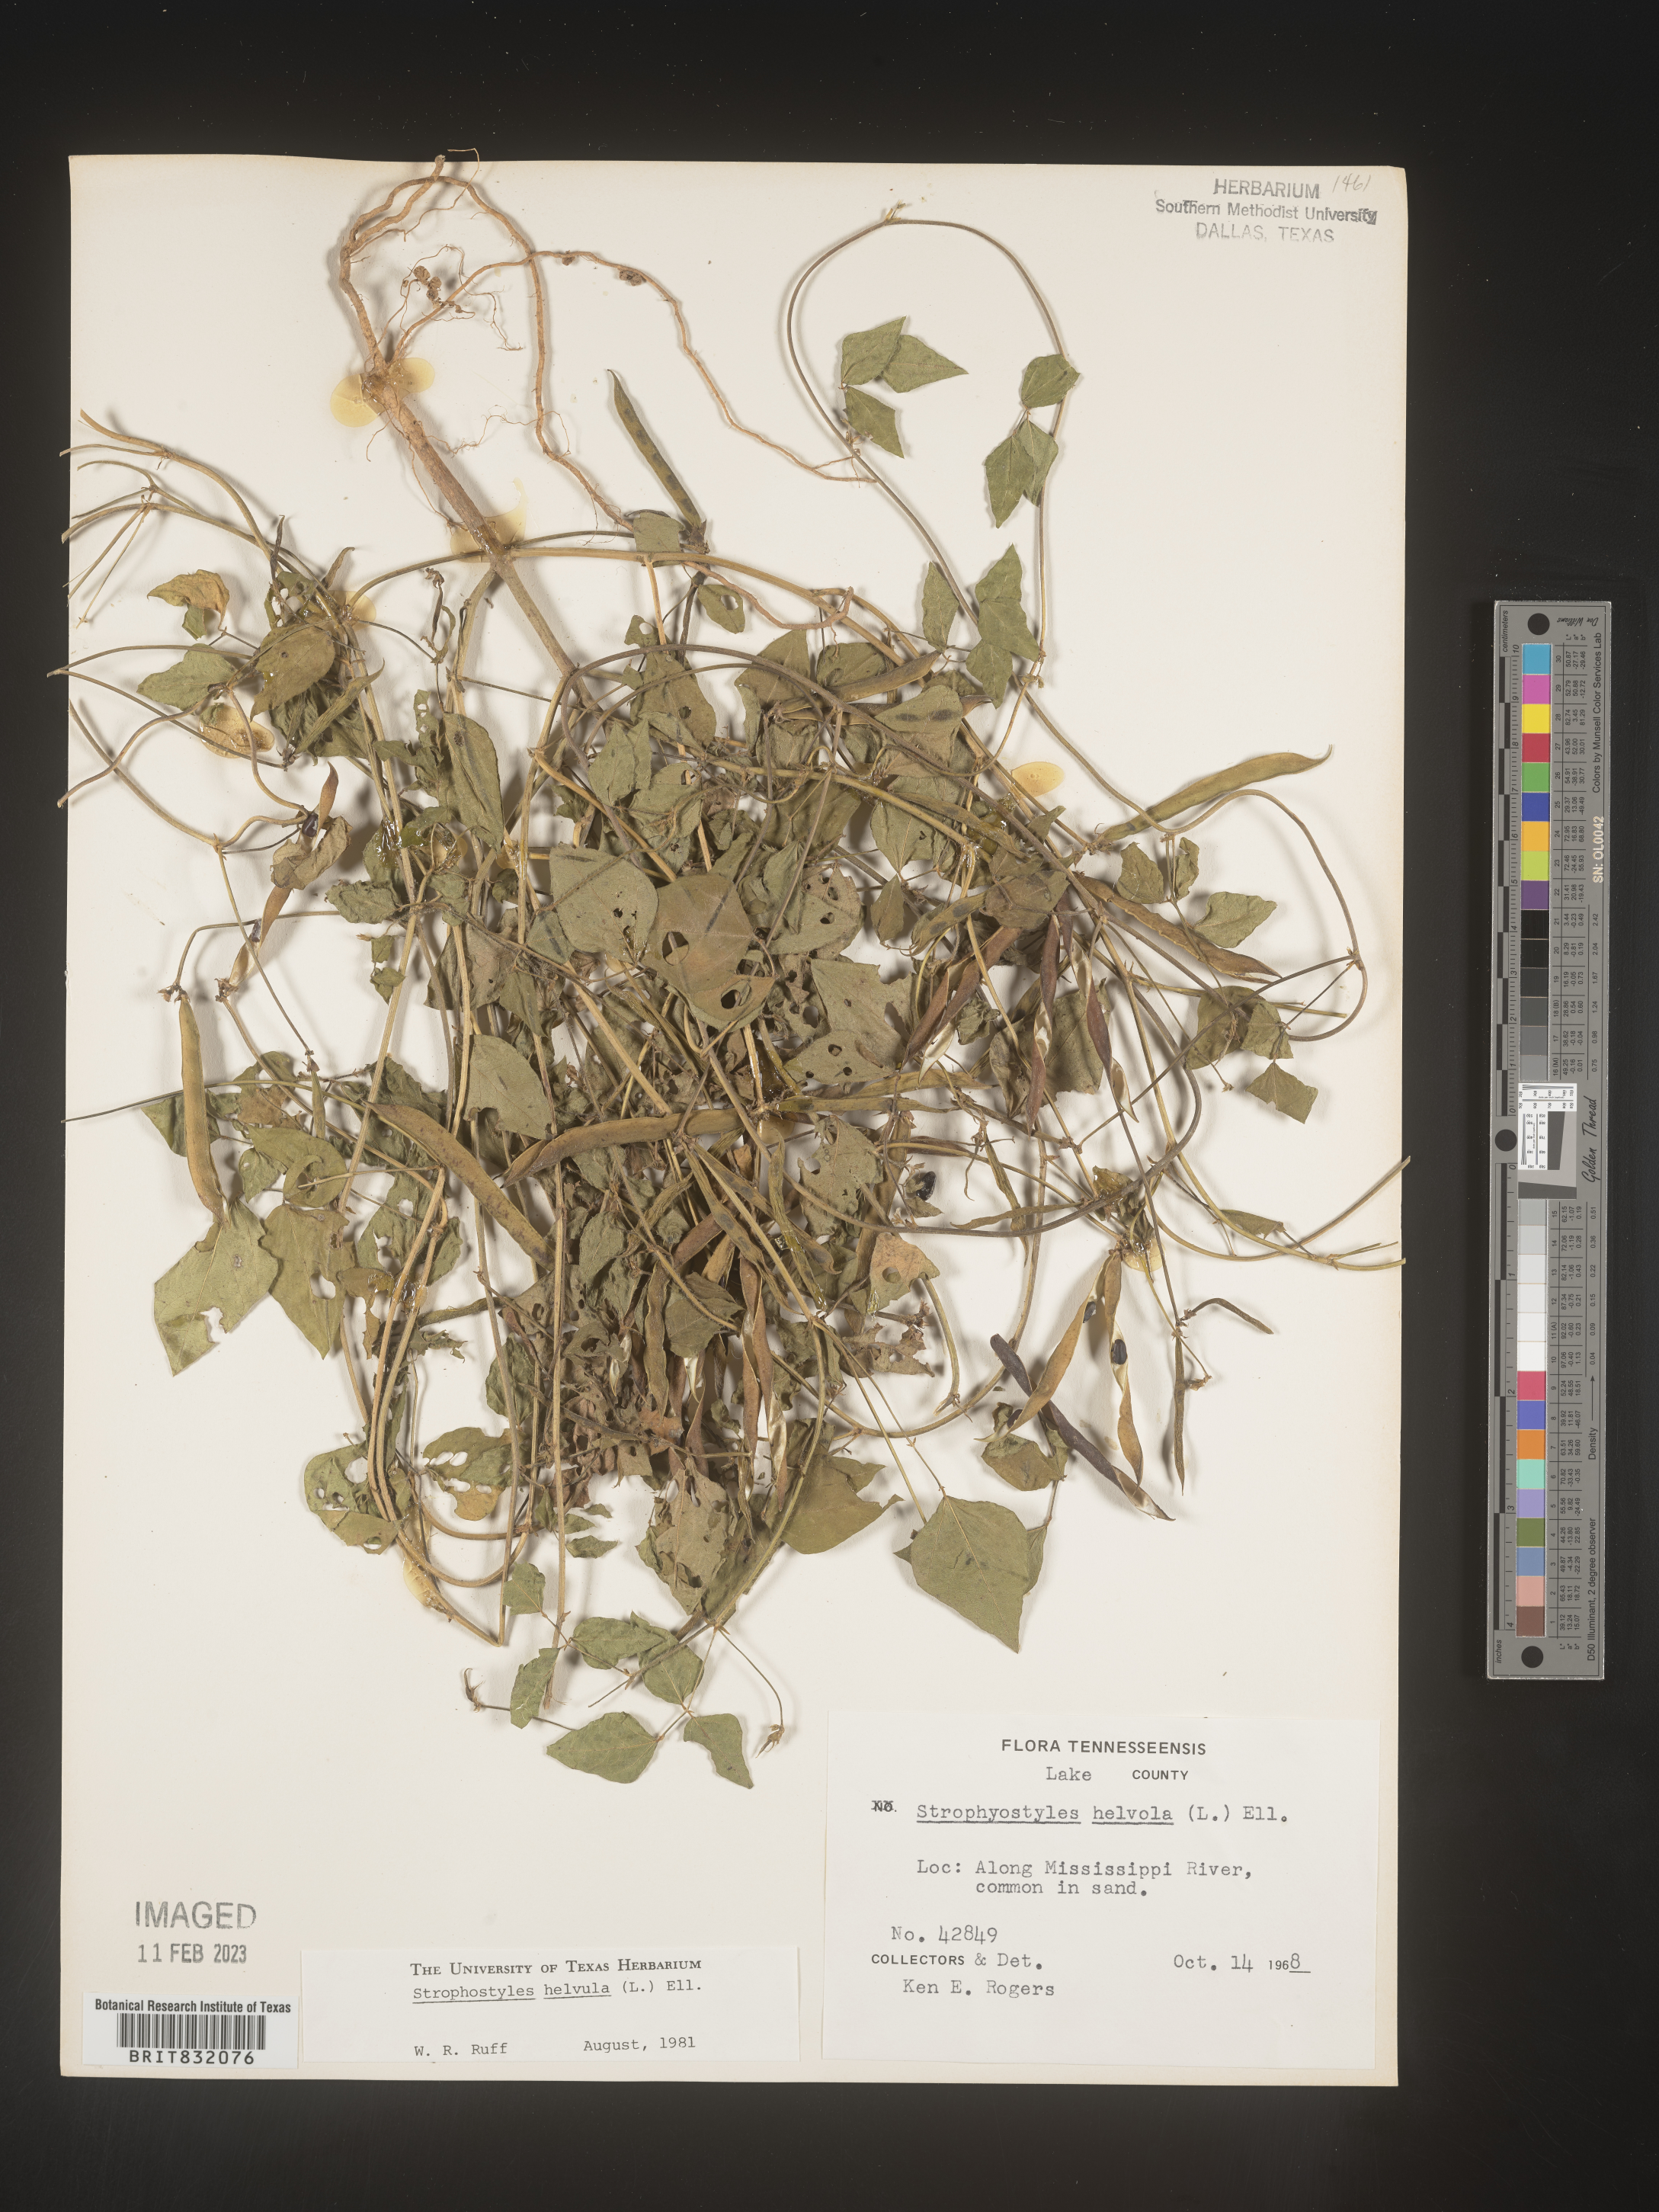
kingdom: Plantae
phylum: Tracheophyta
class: Magnoliopsida
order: Fabales
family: Fabaceae
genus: Strophostyles
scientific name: Strophostyles helvola
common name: Trailing wild bean
